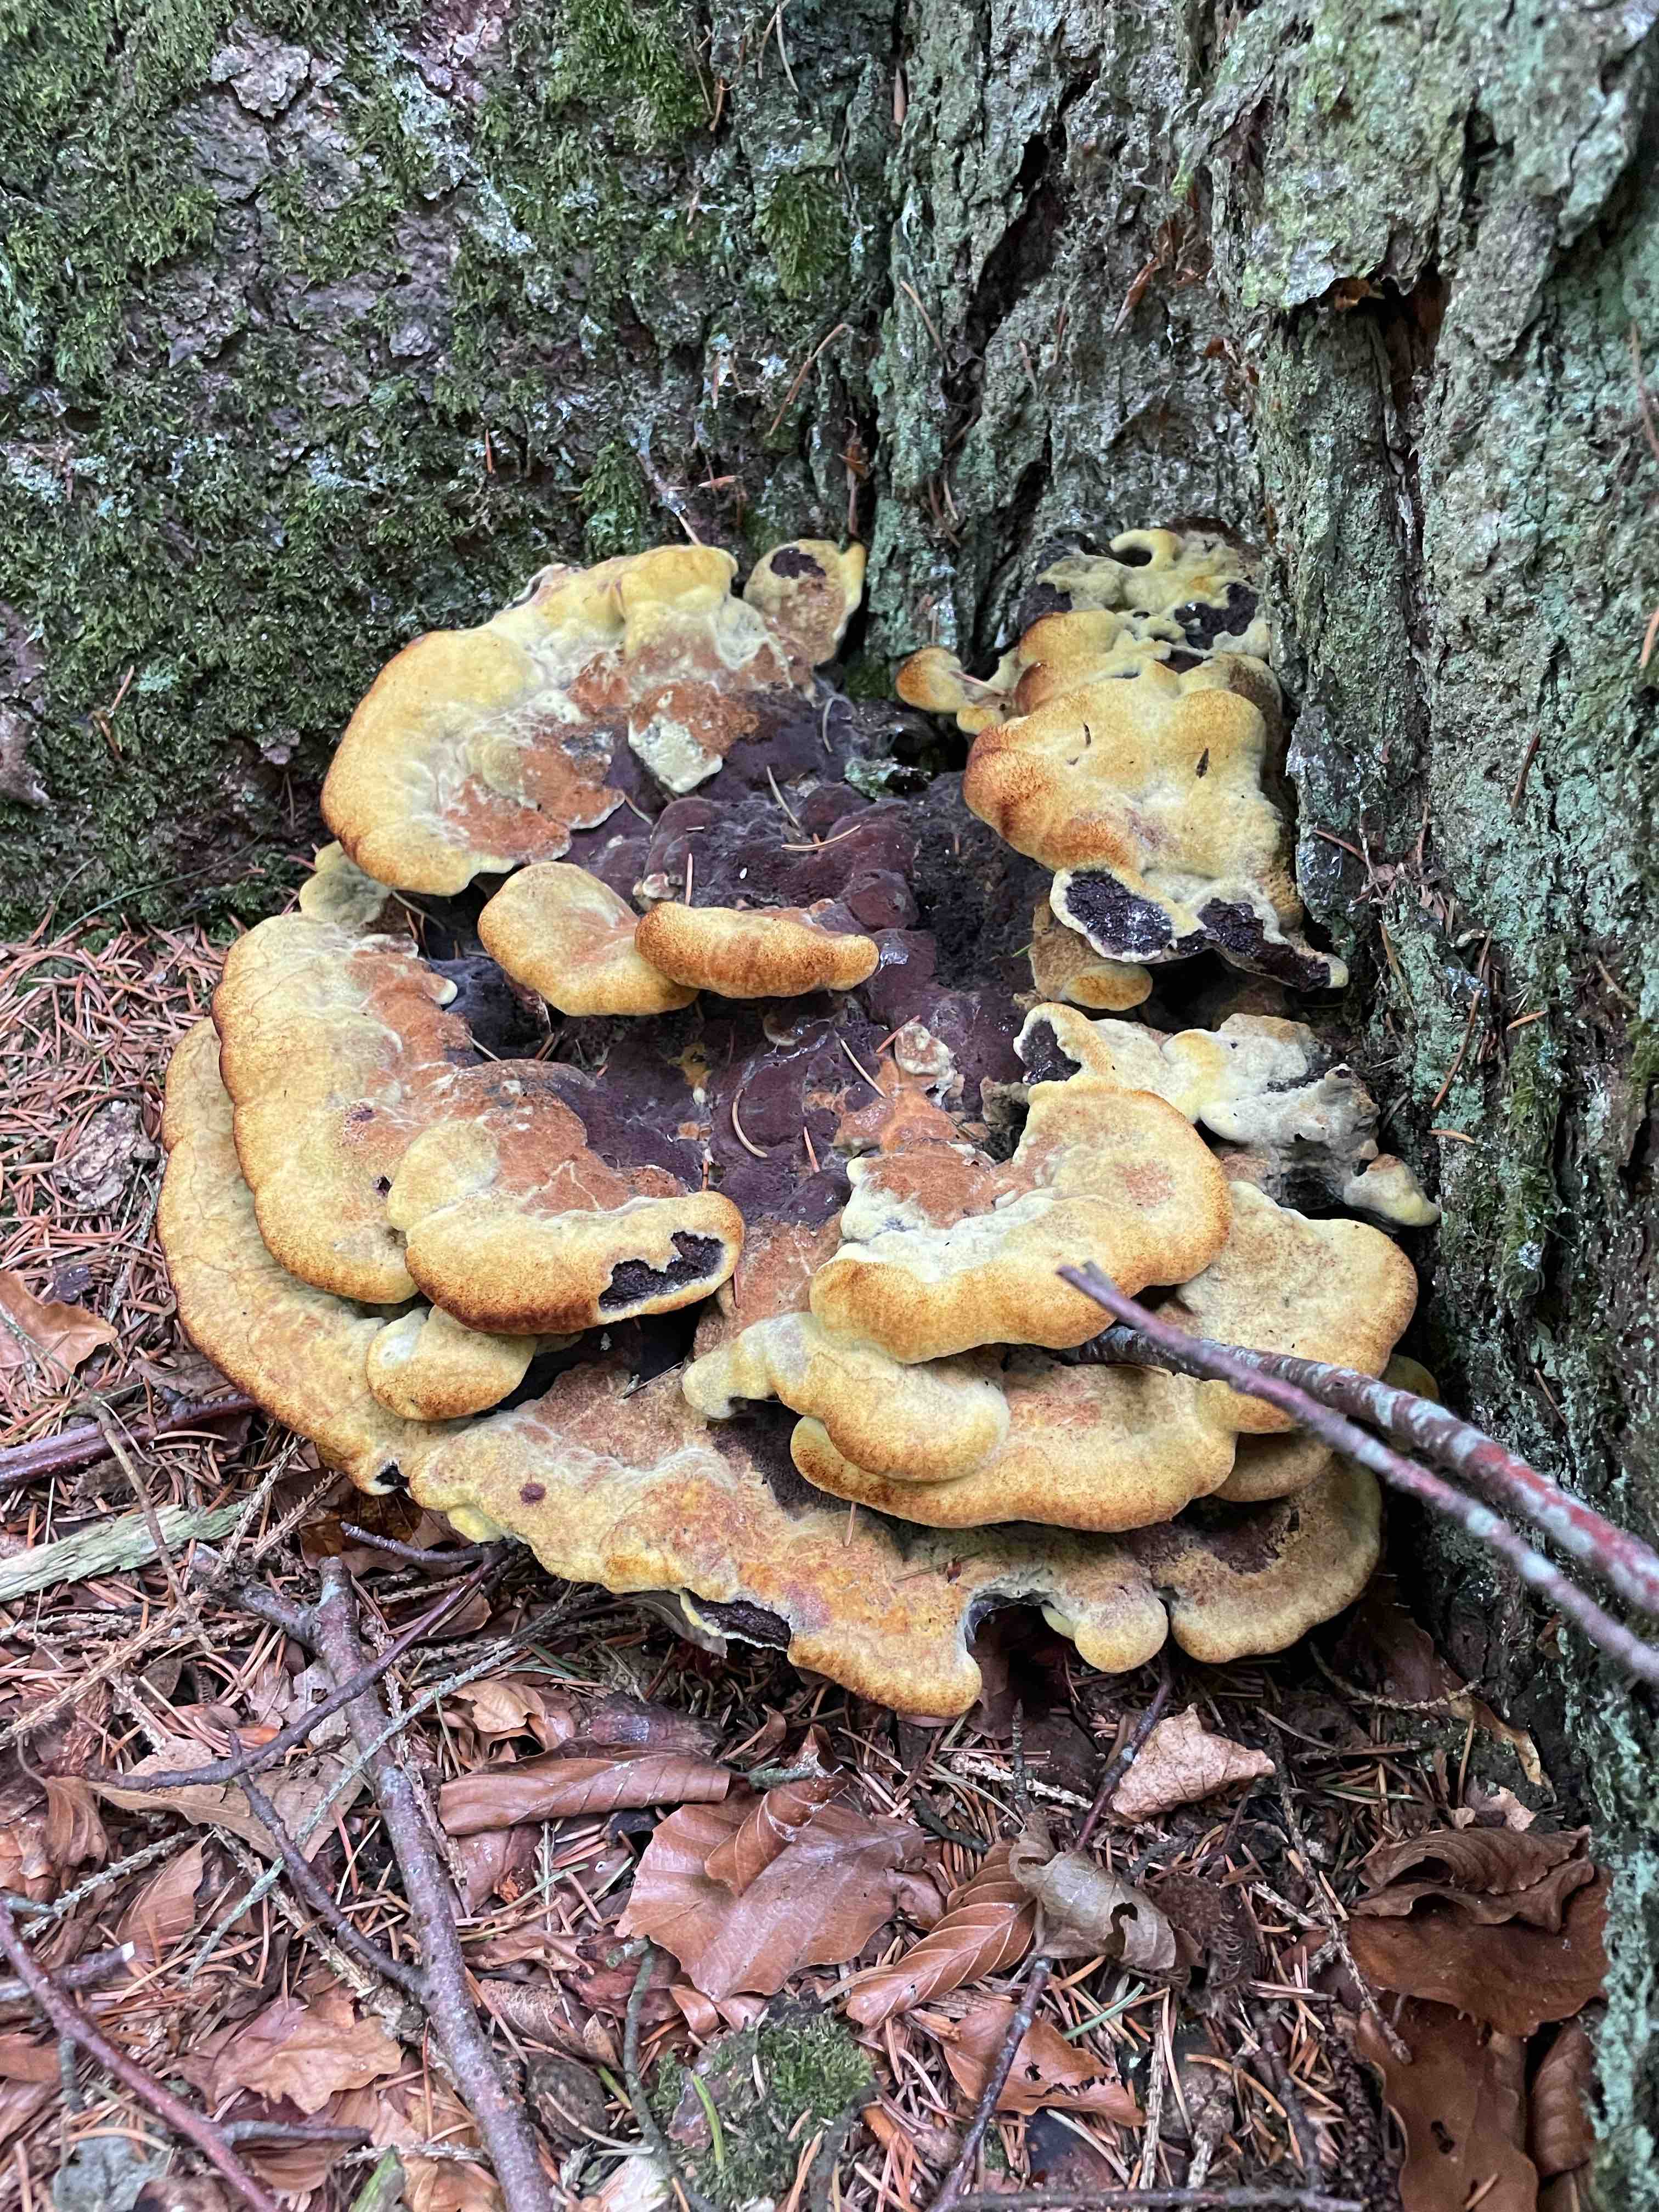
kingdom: Fungi
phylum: Basidiomycota
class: Agaricomycetes
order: Polyporales
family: Laetiporaceae
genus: Phaeolus
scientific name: Phaeolus schweinitzii
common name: brunporesvamp
